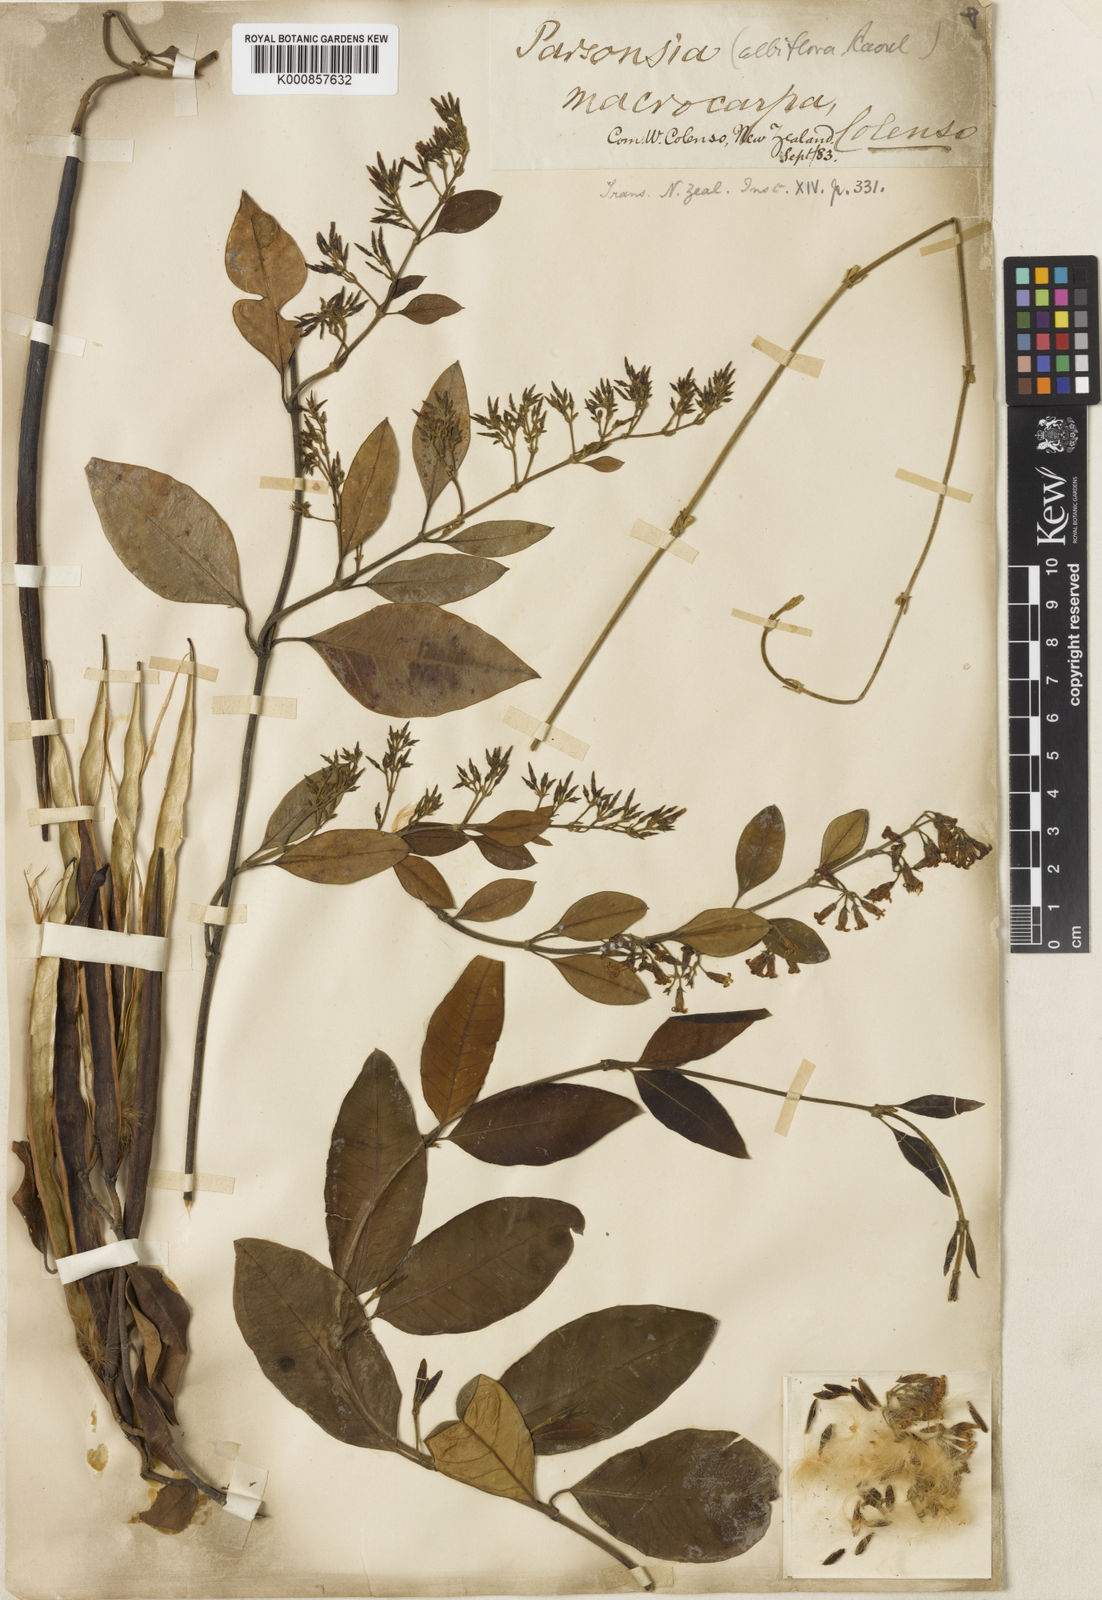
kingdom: Plantae
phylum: Tracheophyta
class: Magnoliopsida
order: Gentianales
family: Apocynaceae
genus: Parsonsia
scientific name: Parsonsia heterophylla
